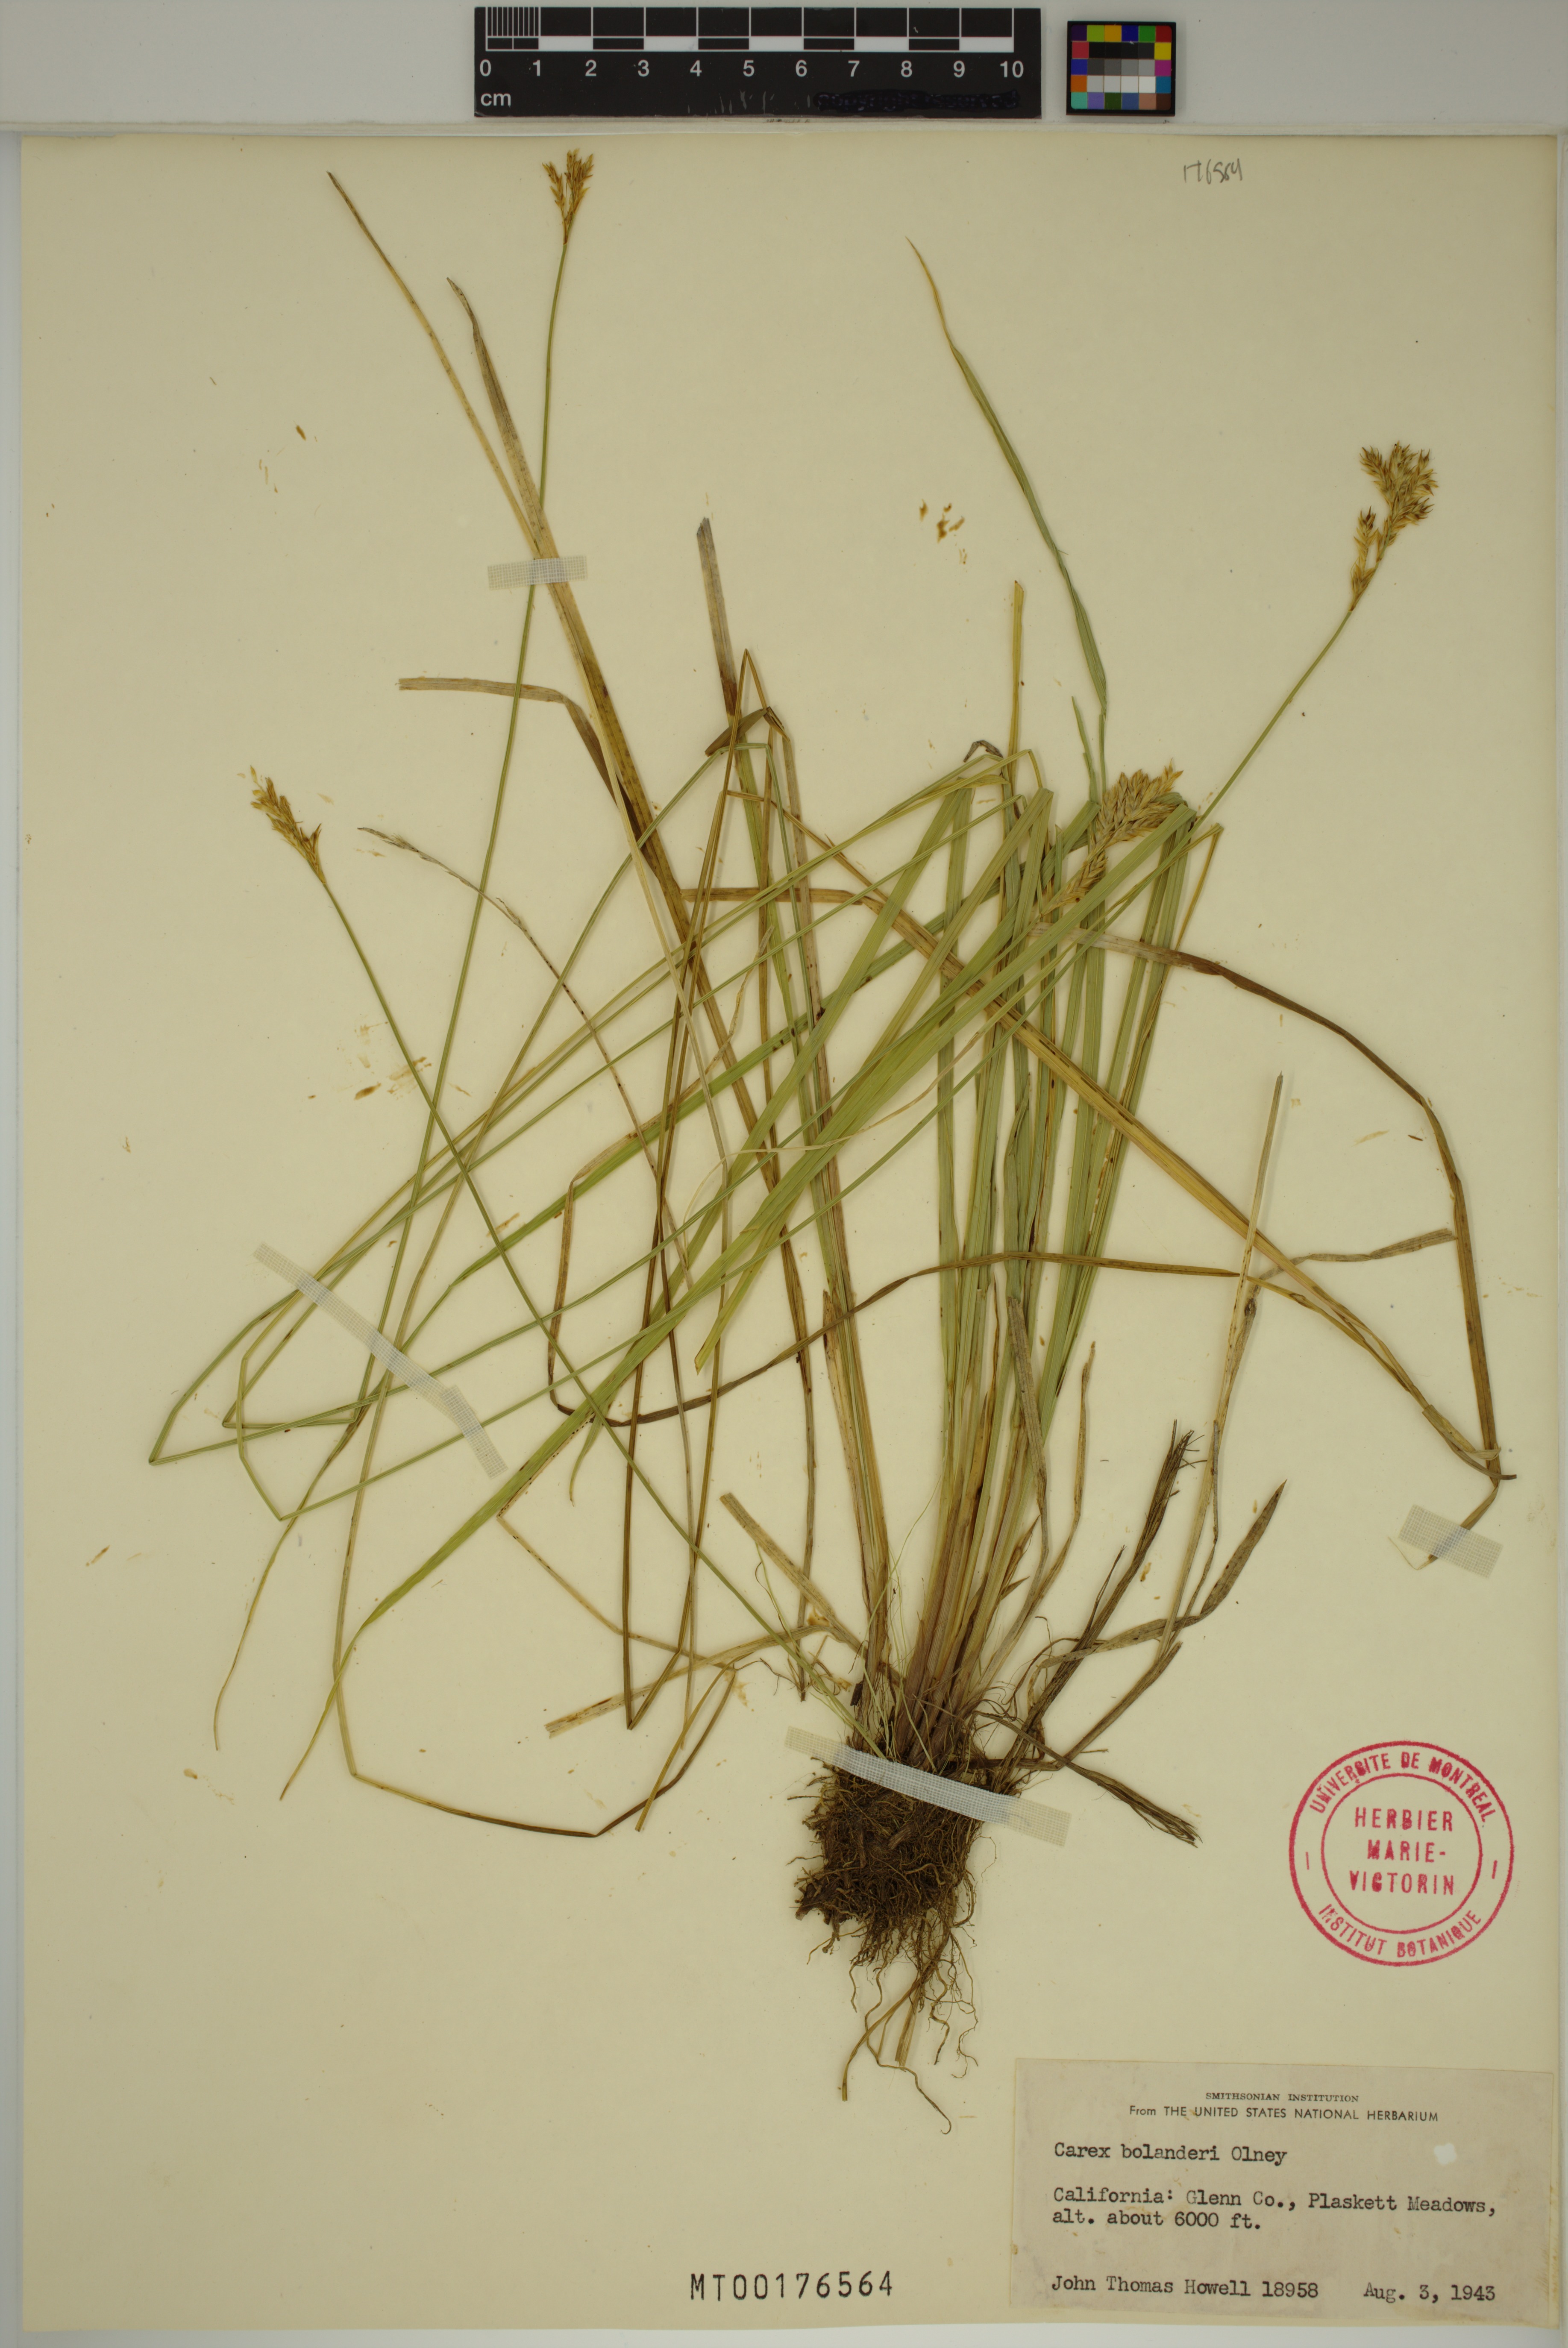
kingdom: Plantae
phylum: Tracheophyta
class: Liliopsida
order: Poales
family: Cyperaceae
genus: Carex
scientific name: Carex bolanderi
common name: Bolander's sedge
